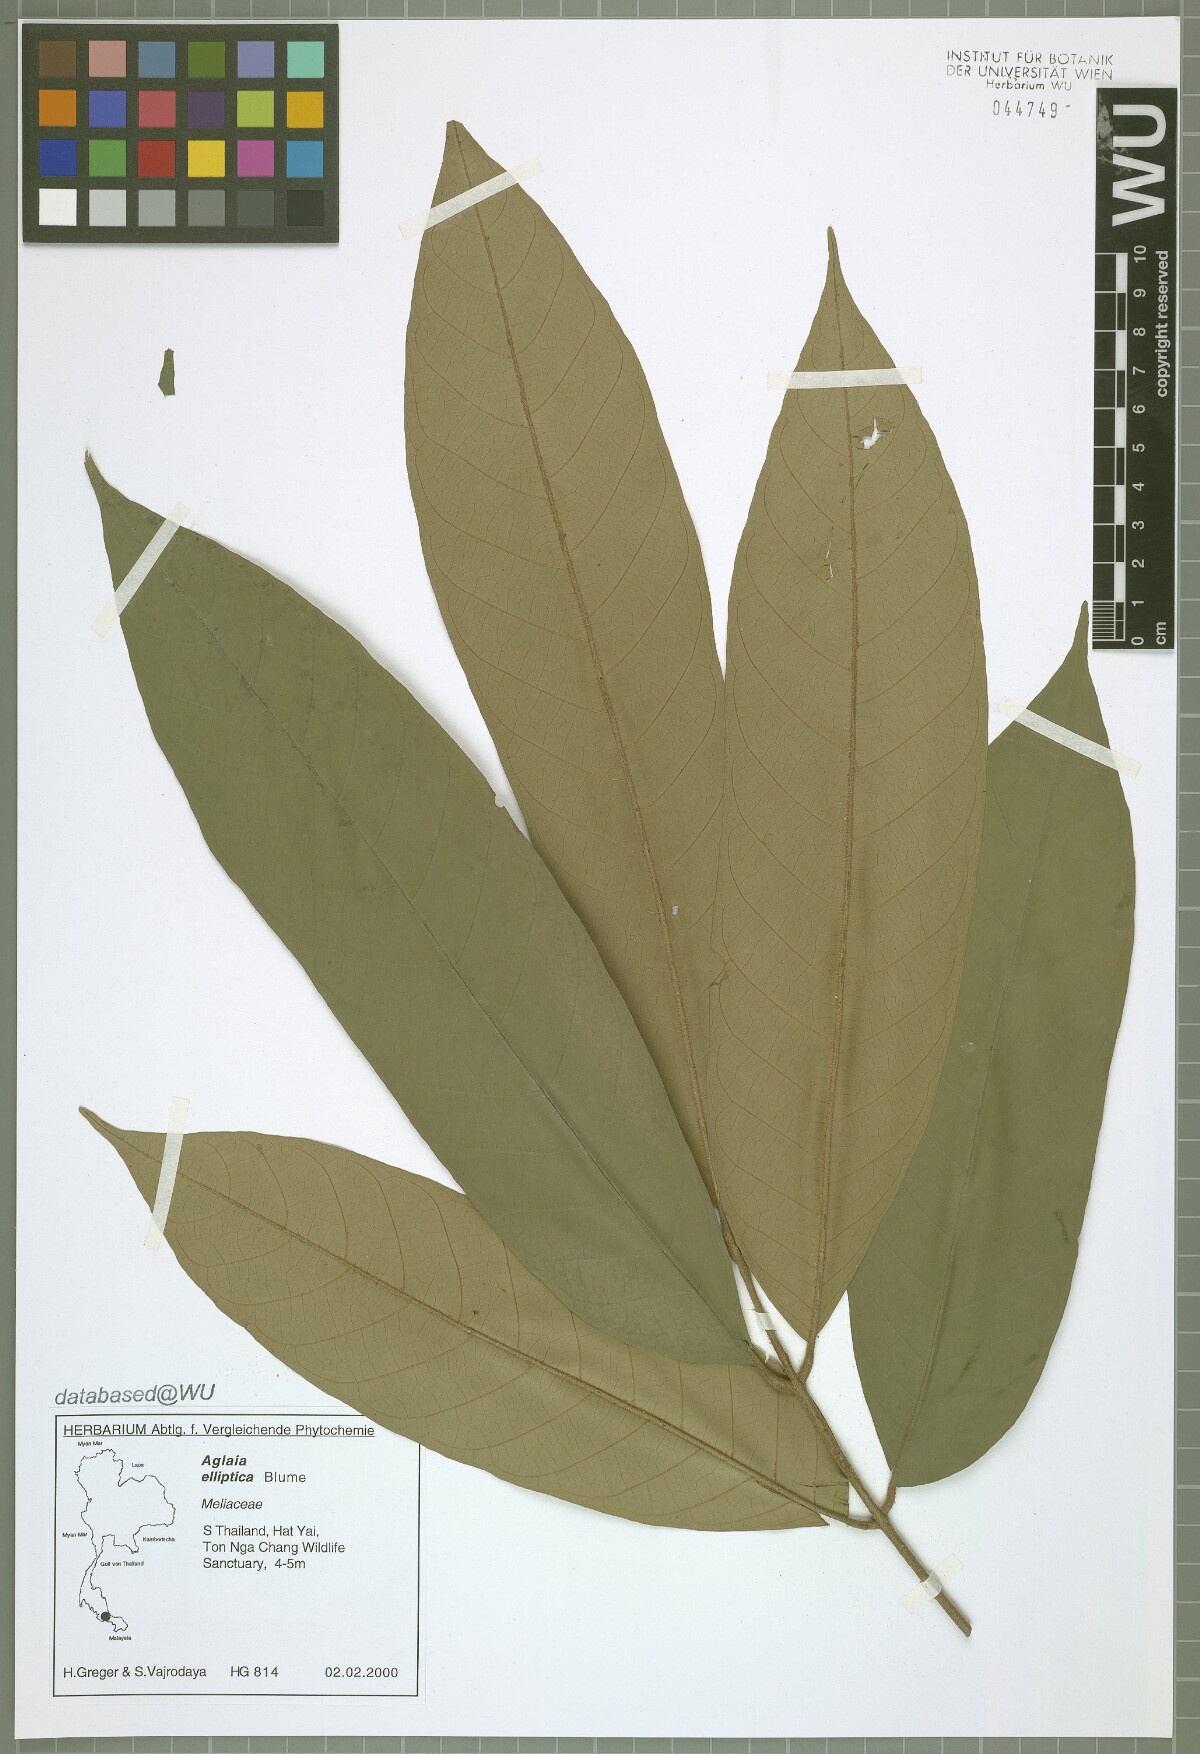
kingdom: Plantae
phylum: Tracheophyta
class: Magnoliopsida
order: Sapindales
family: Meliaceae
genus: Aglaia
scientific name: Aglaia elliptica
